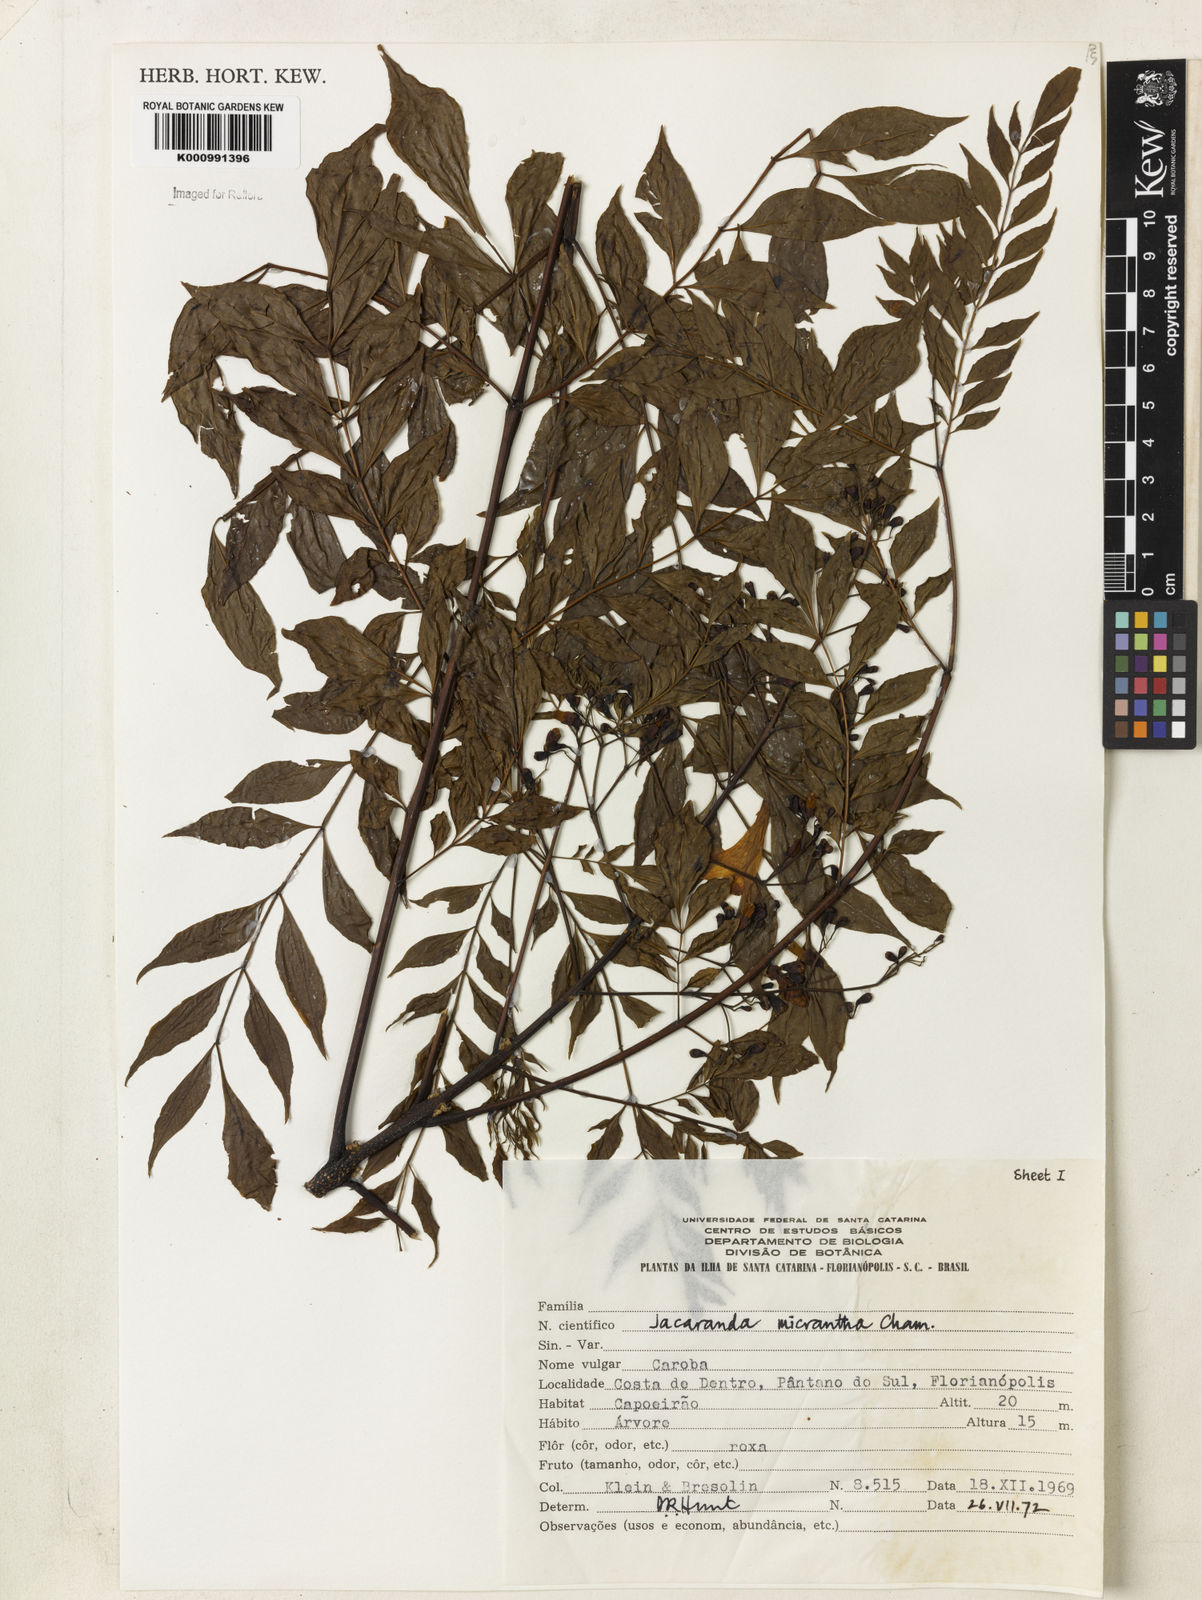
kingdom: Plantae
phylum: Tracheophyta
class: Magnoliopsida
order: Lamiales
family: Bignoniaceae
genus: Jacaranda
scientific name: Jacaranda micrantha
